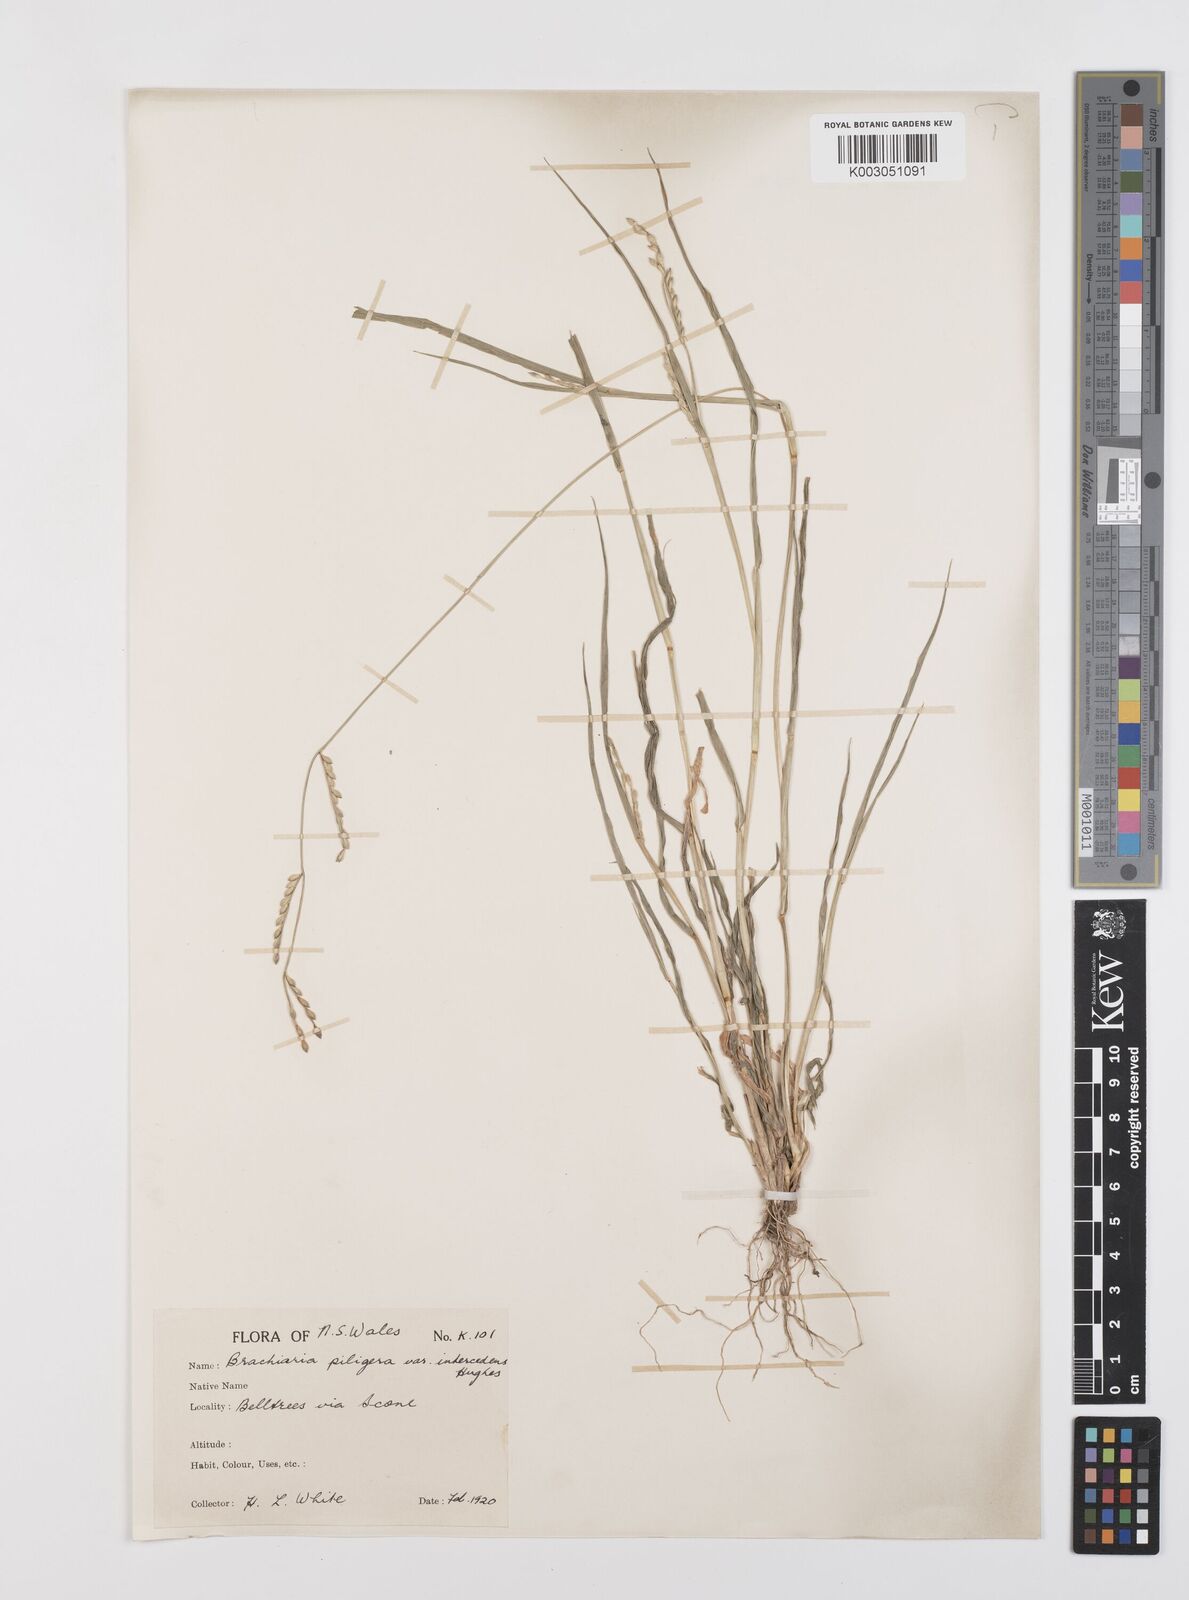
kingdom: Plantae
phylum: Tracheophyta
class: Liliopsida
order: Poales
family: Poaceae
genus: Urochloa
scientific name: Urochloa piligera
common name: Wattle signalgrass
